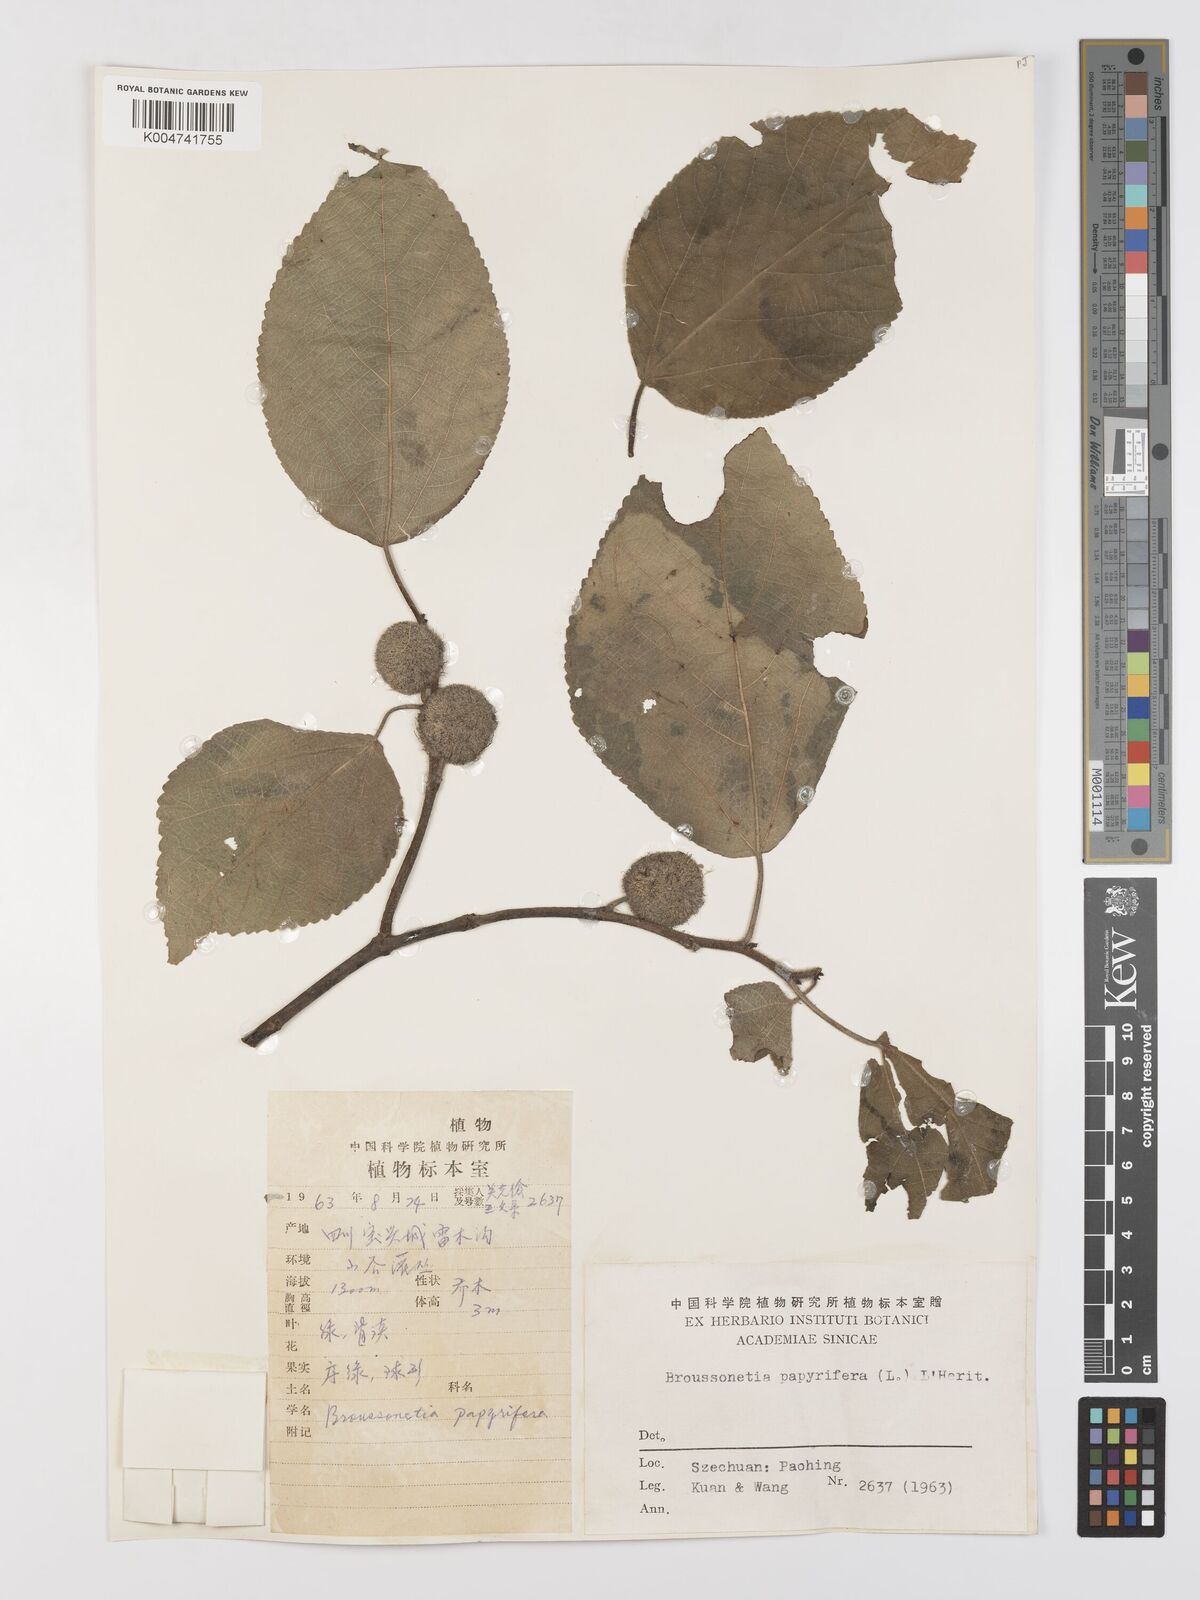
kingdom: Plantae
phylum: Tracheophyta
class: Magnoliopsida
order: Rosales
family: Moraceae
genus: Broussonetia
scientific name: Broussonetia
